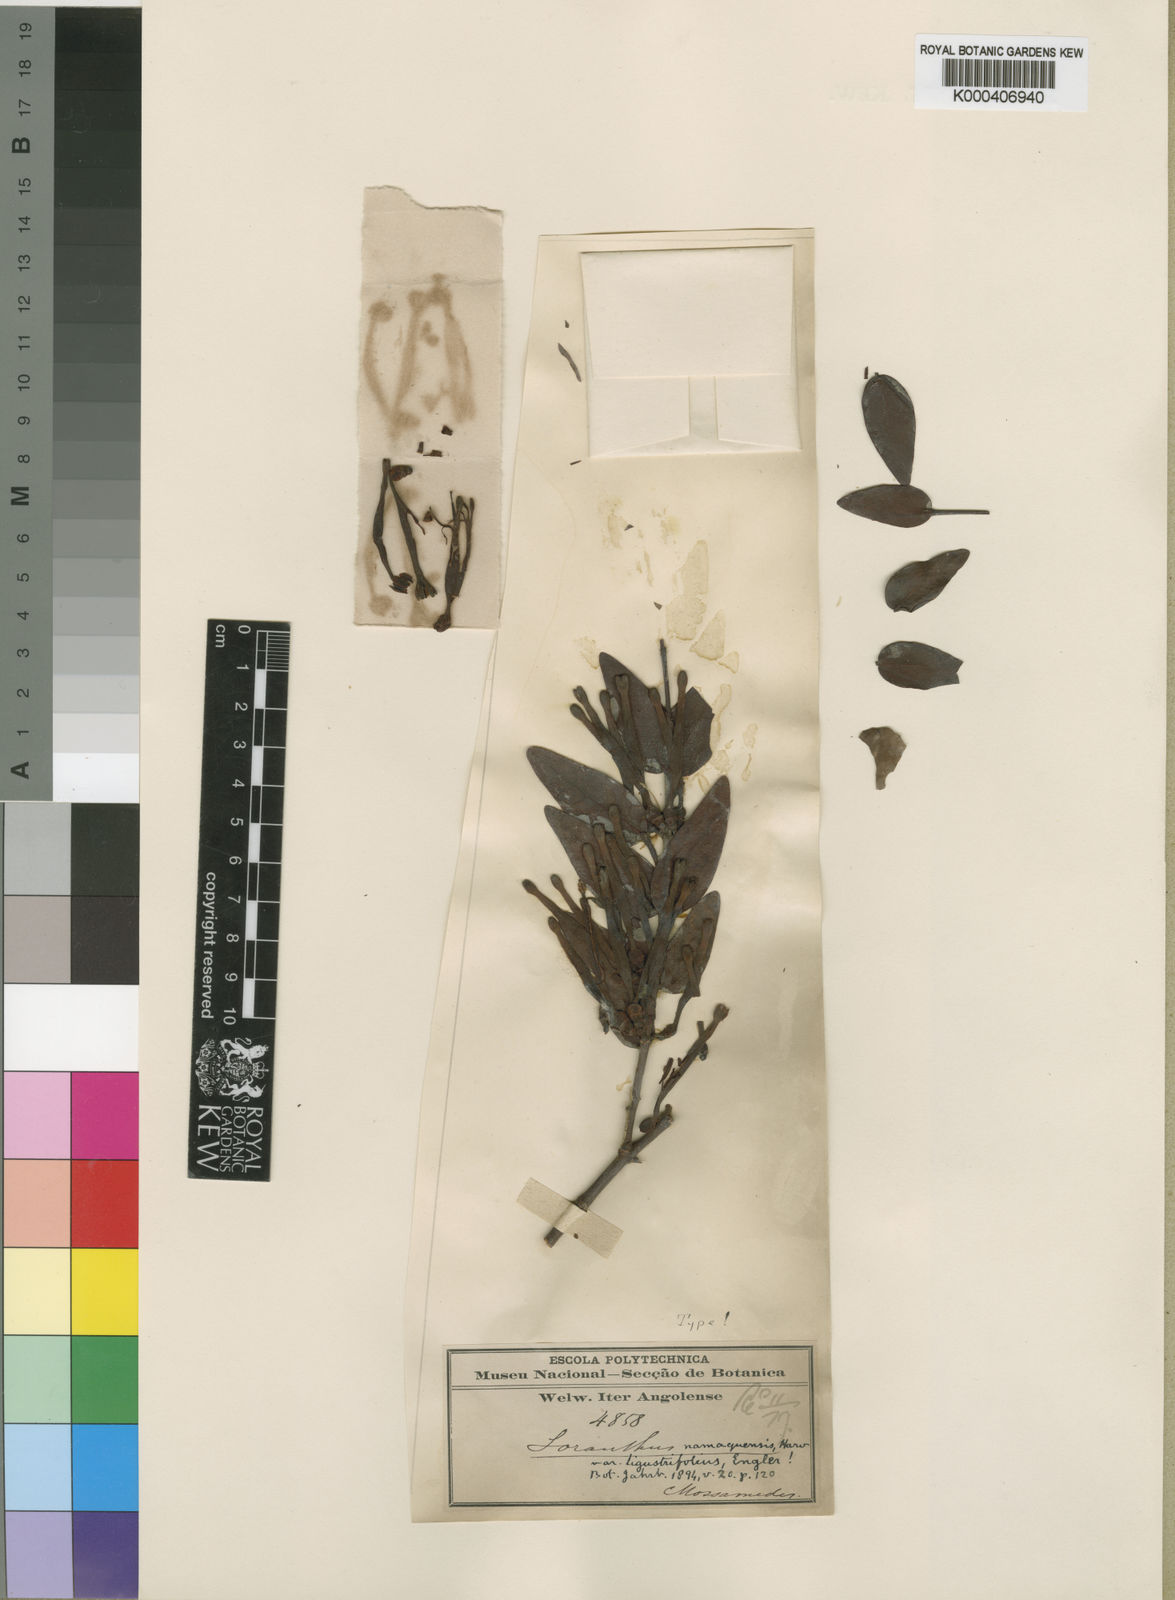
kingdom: Plantae
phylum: Tracheophyta
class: Magnoliopsida
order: Santalales
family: Loranthaceae
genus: Tapinanthus
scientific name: Tapinanthus oleifolius
